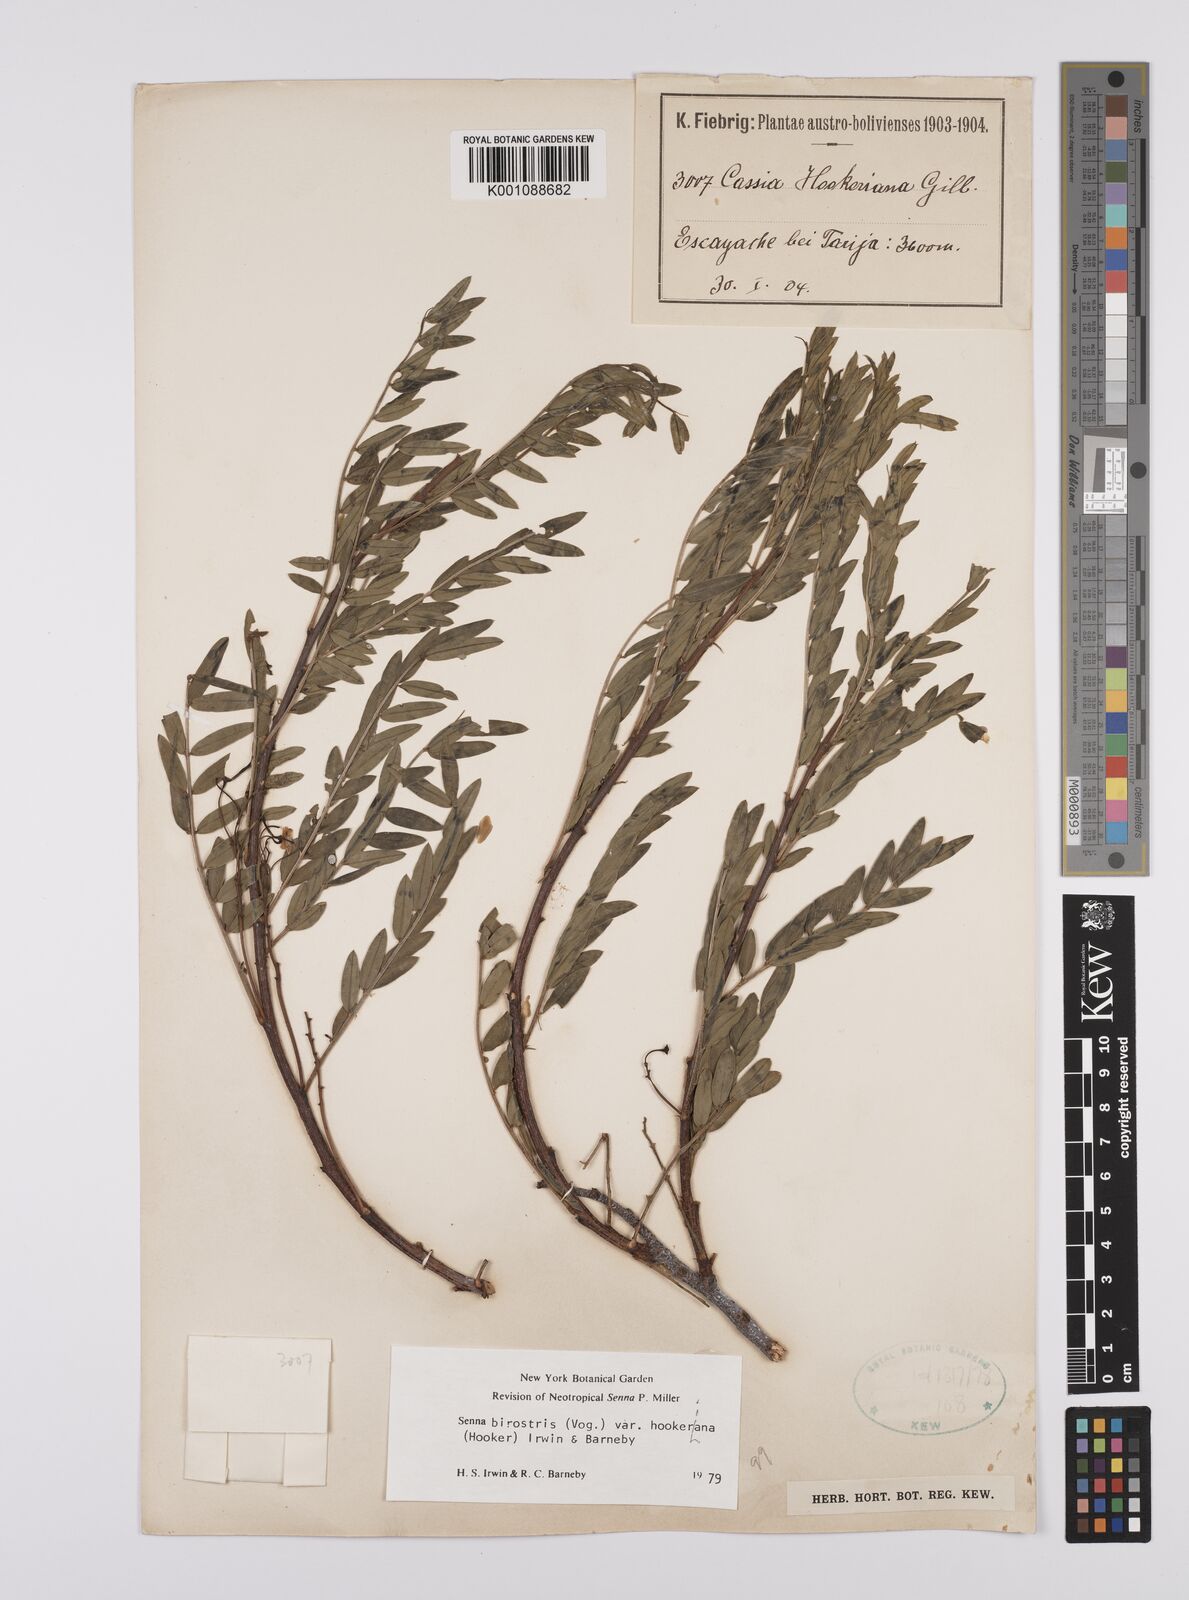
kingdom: Plantae
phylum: Tracheophyta
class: Magnoliopsida
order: Fabales
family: Fabaceae
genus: Senna
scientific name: Senna birostris
